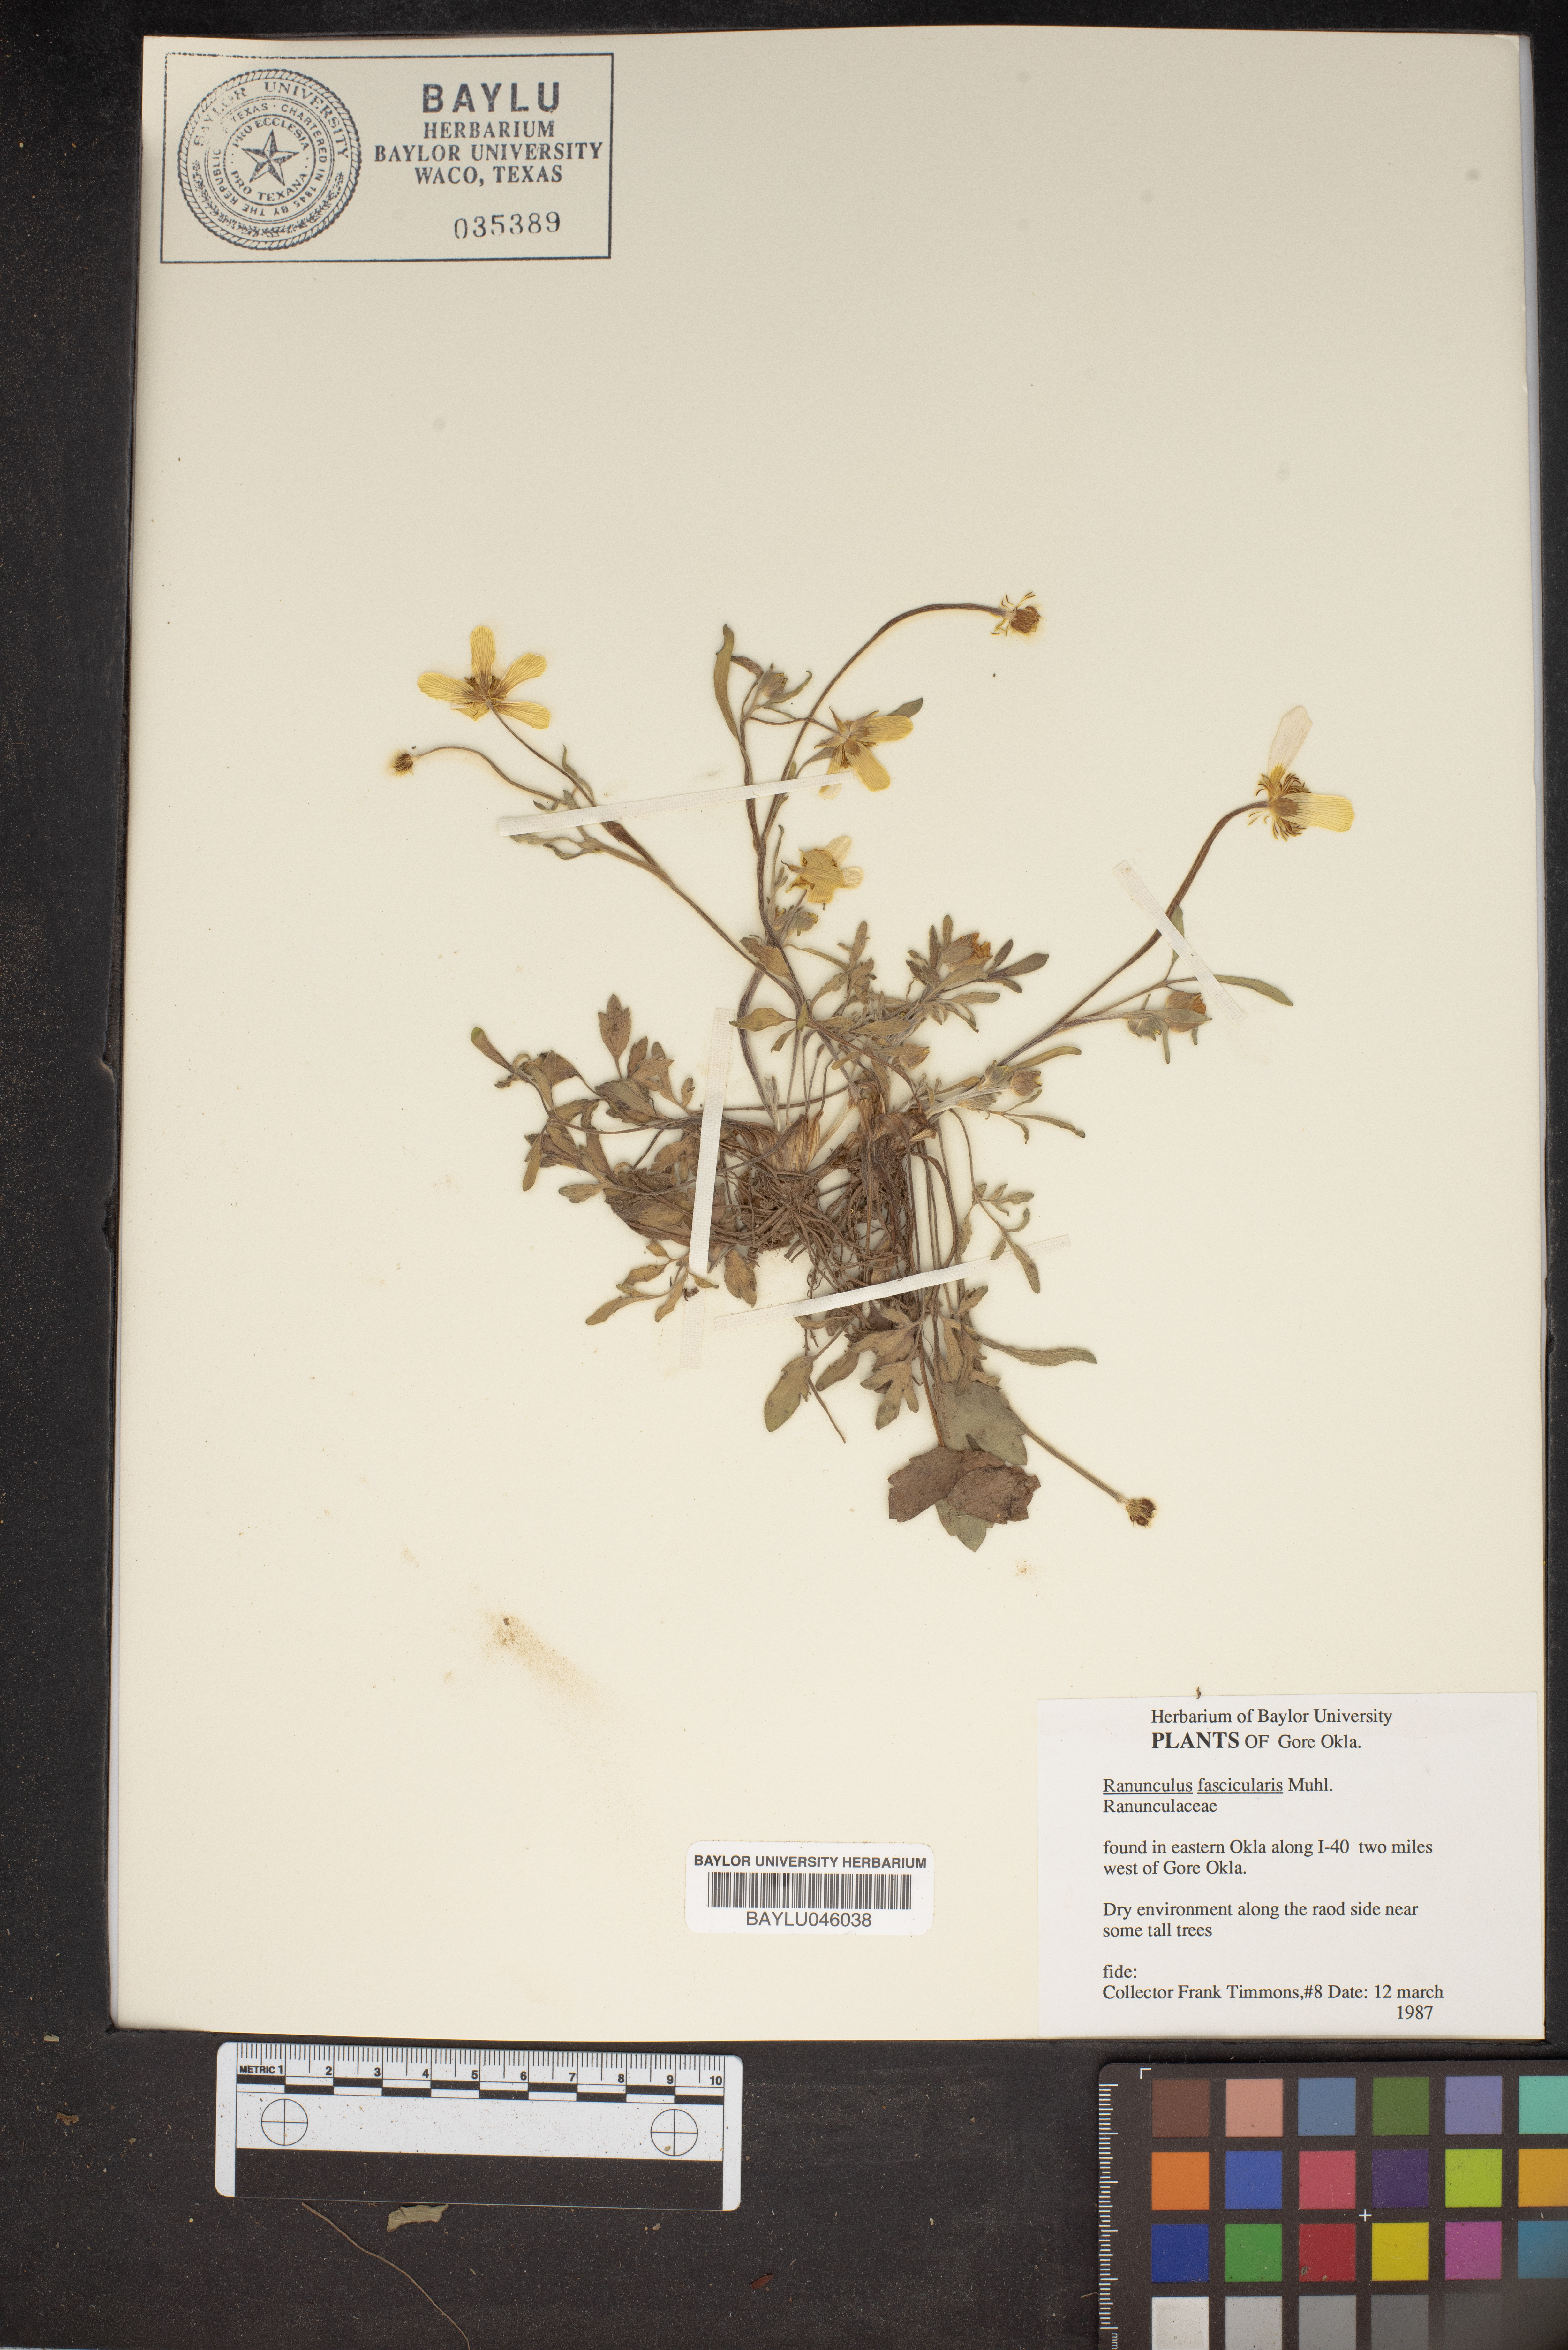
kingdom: Plantae
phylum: Tracheophyta
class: Magnoliopsida
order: Ranunculales
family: Ranunculaceae
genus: Ranunculus
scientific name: Ranunculus fascicularis
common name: Early buttercup
